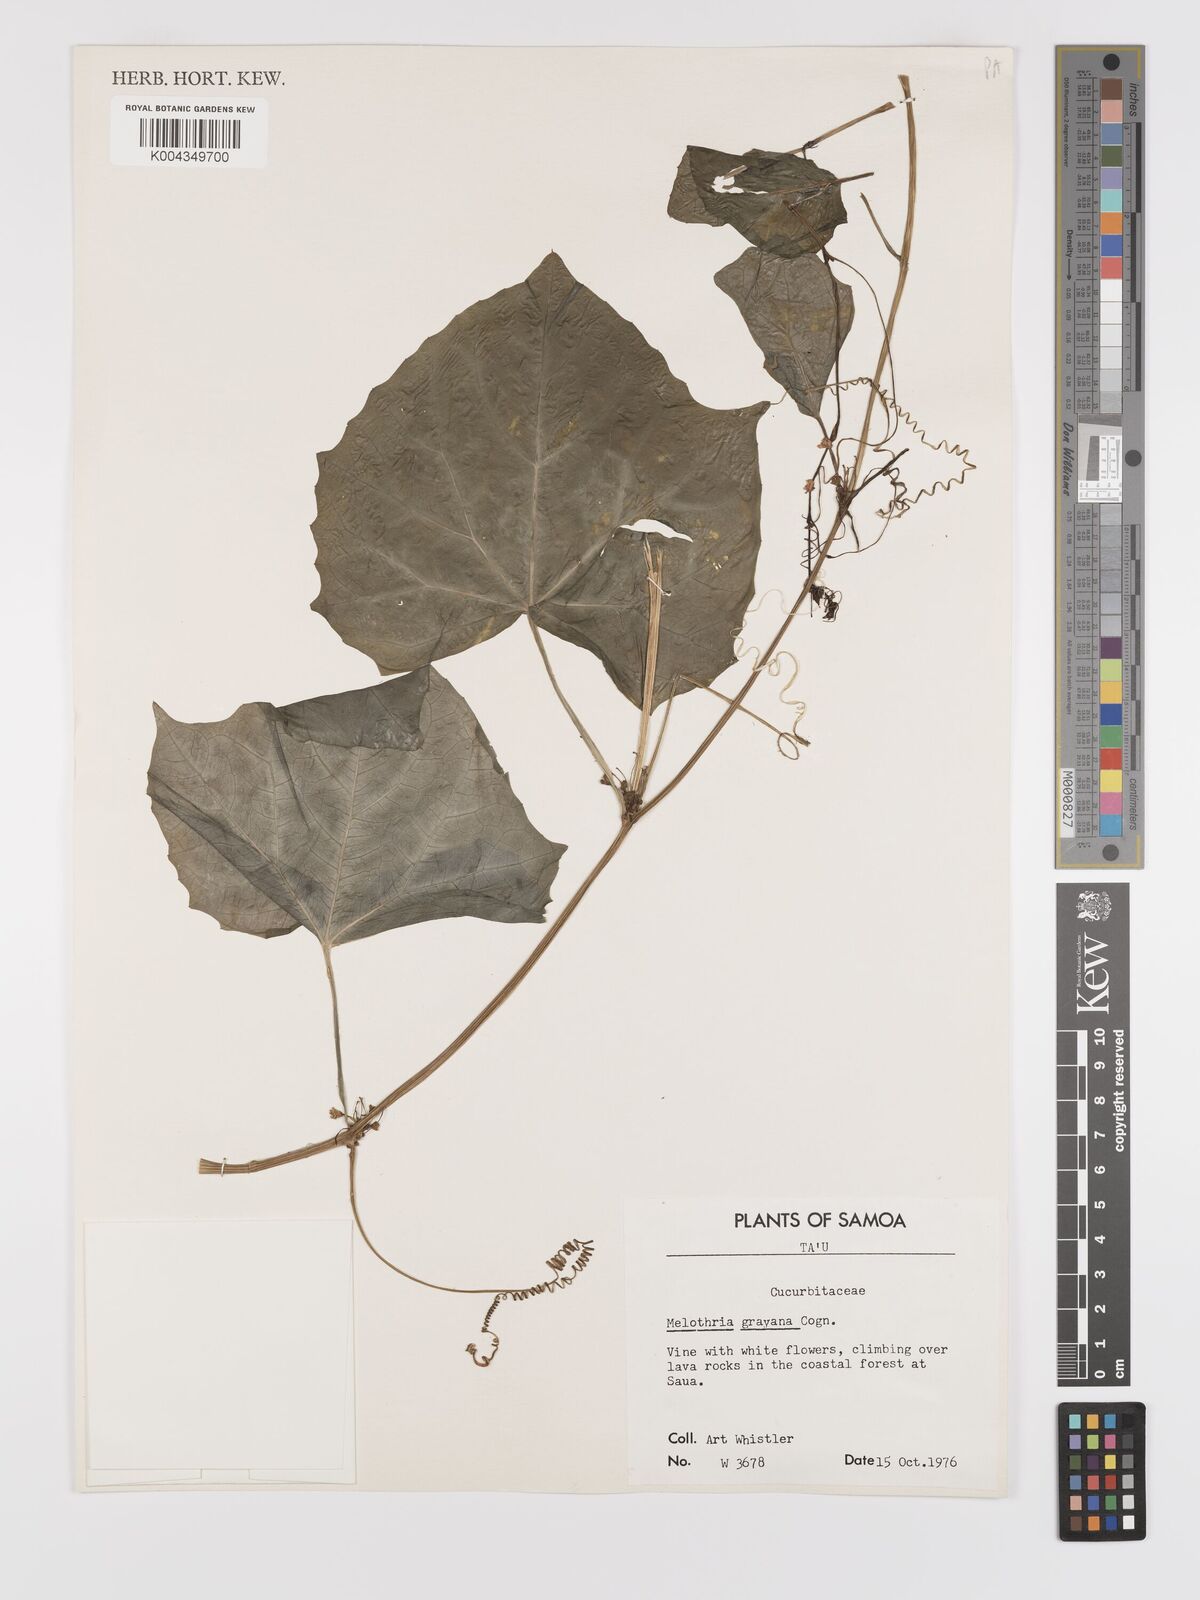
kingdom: Plantae
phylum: Tracheophyta
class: Magnoliopsida
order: Cucurbitales
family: Cucurbitaceae
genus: Zehneria
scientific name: Zehneria
